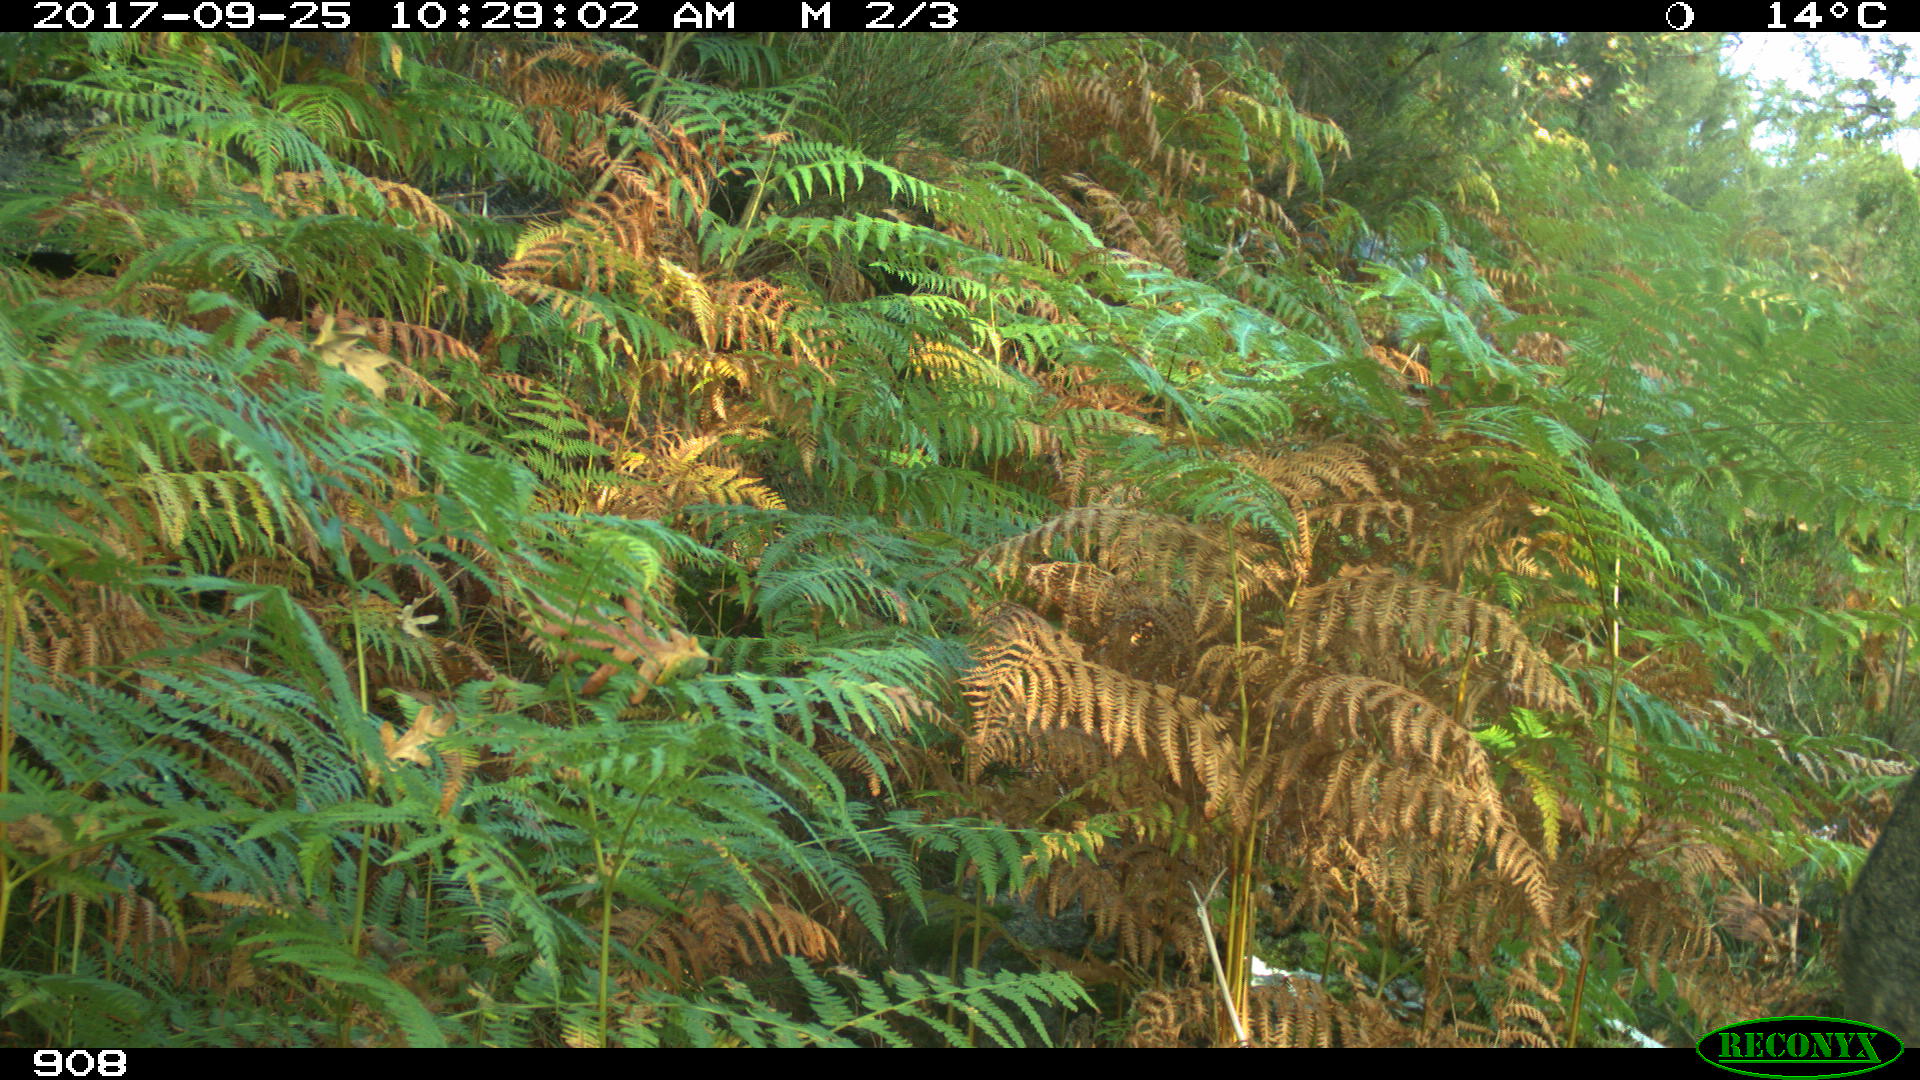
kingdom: Animalia
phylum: Chordata
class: Mammalia
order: Artiodactyla
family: Cervidae
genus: Capreolus
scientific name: Capreolus capreolus
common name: Western roe deer
